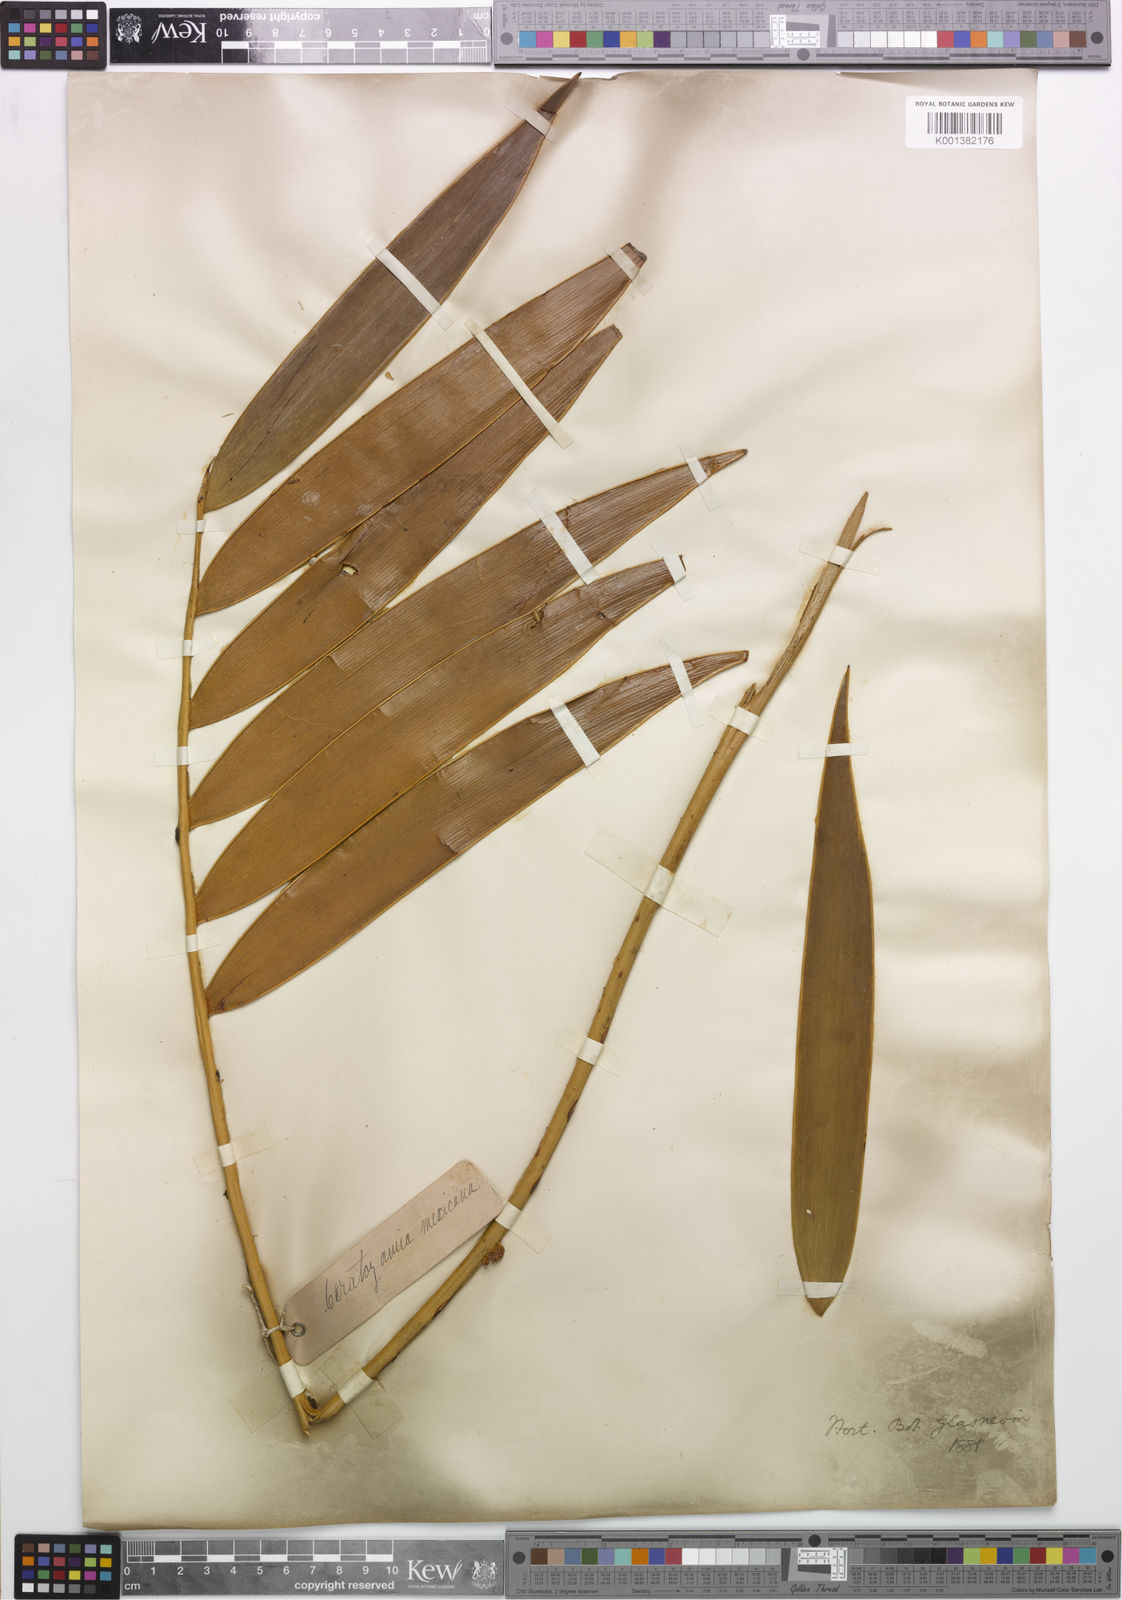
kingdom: Plantae
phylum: Tracheophyta
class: Cycadopsida
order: Cycadales
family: Zamiaceae
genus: Ceratozamia
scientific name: Ceratozamia latifolia
